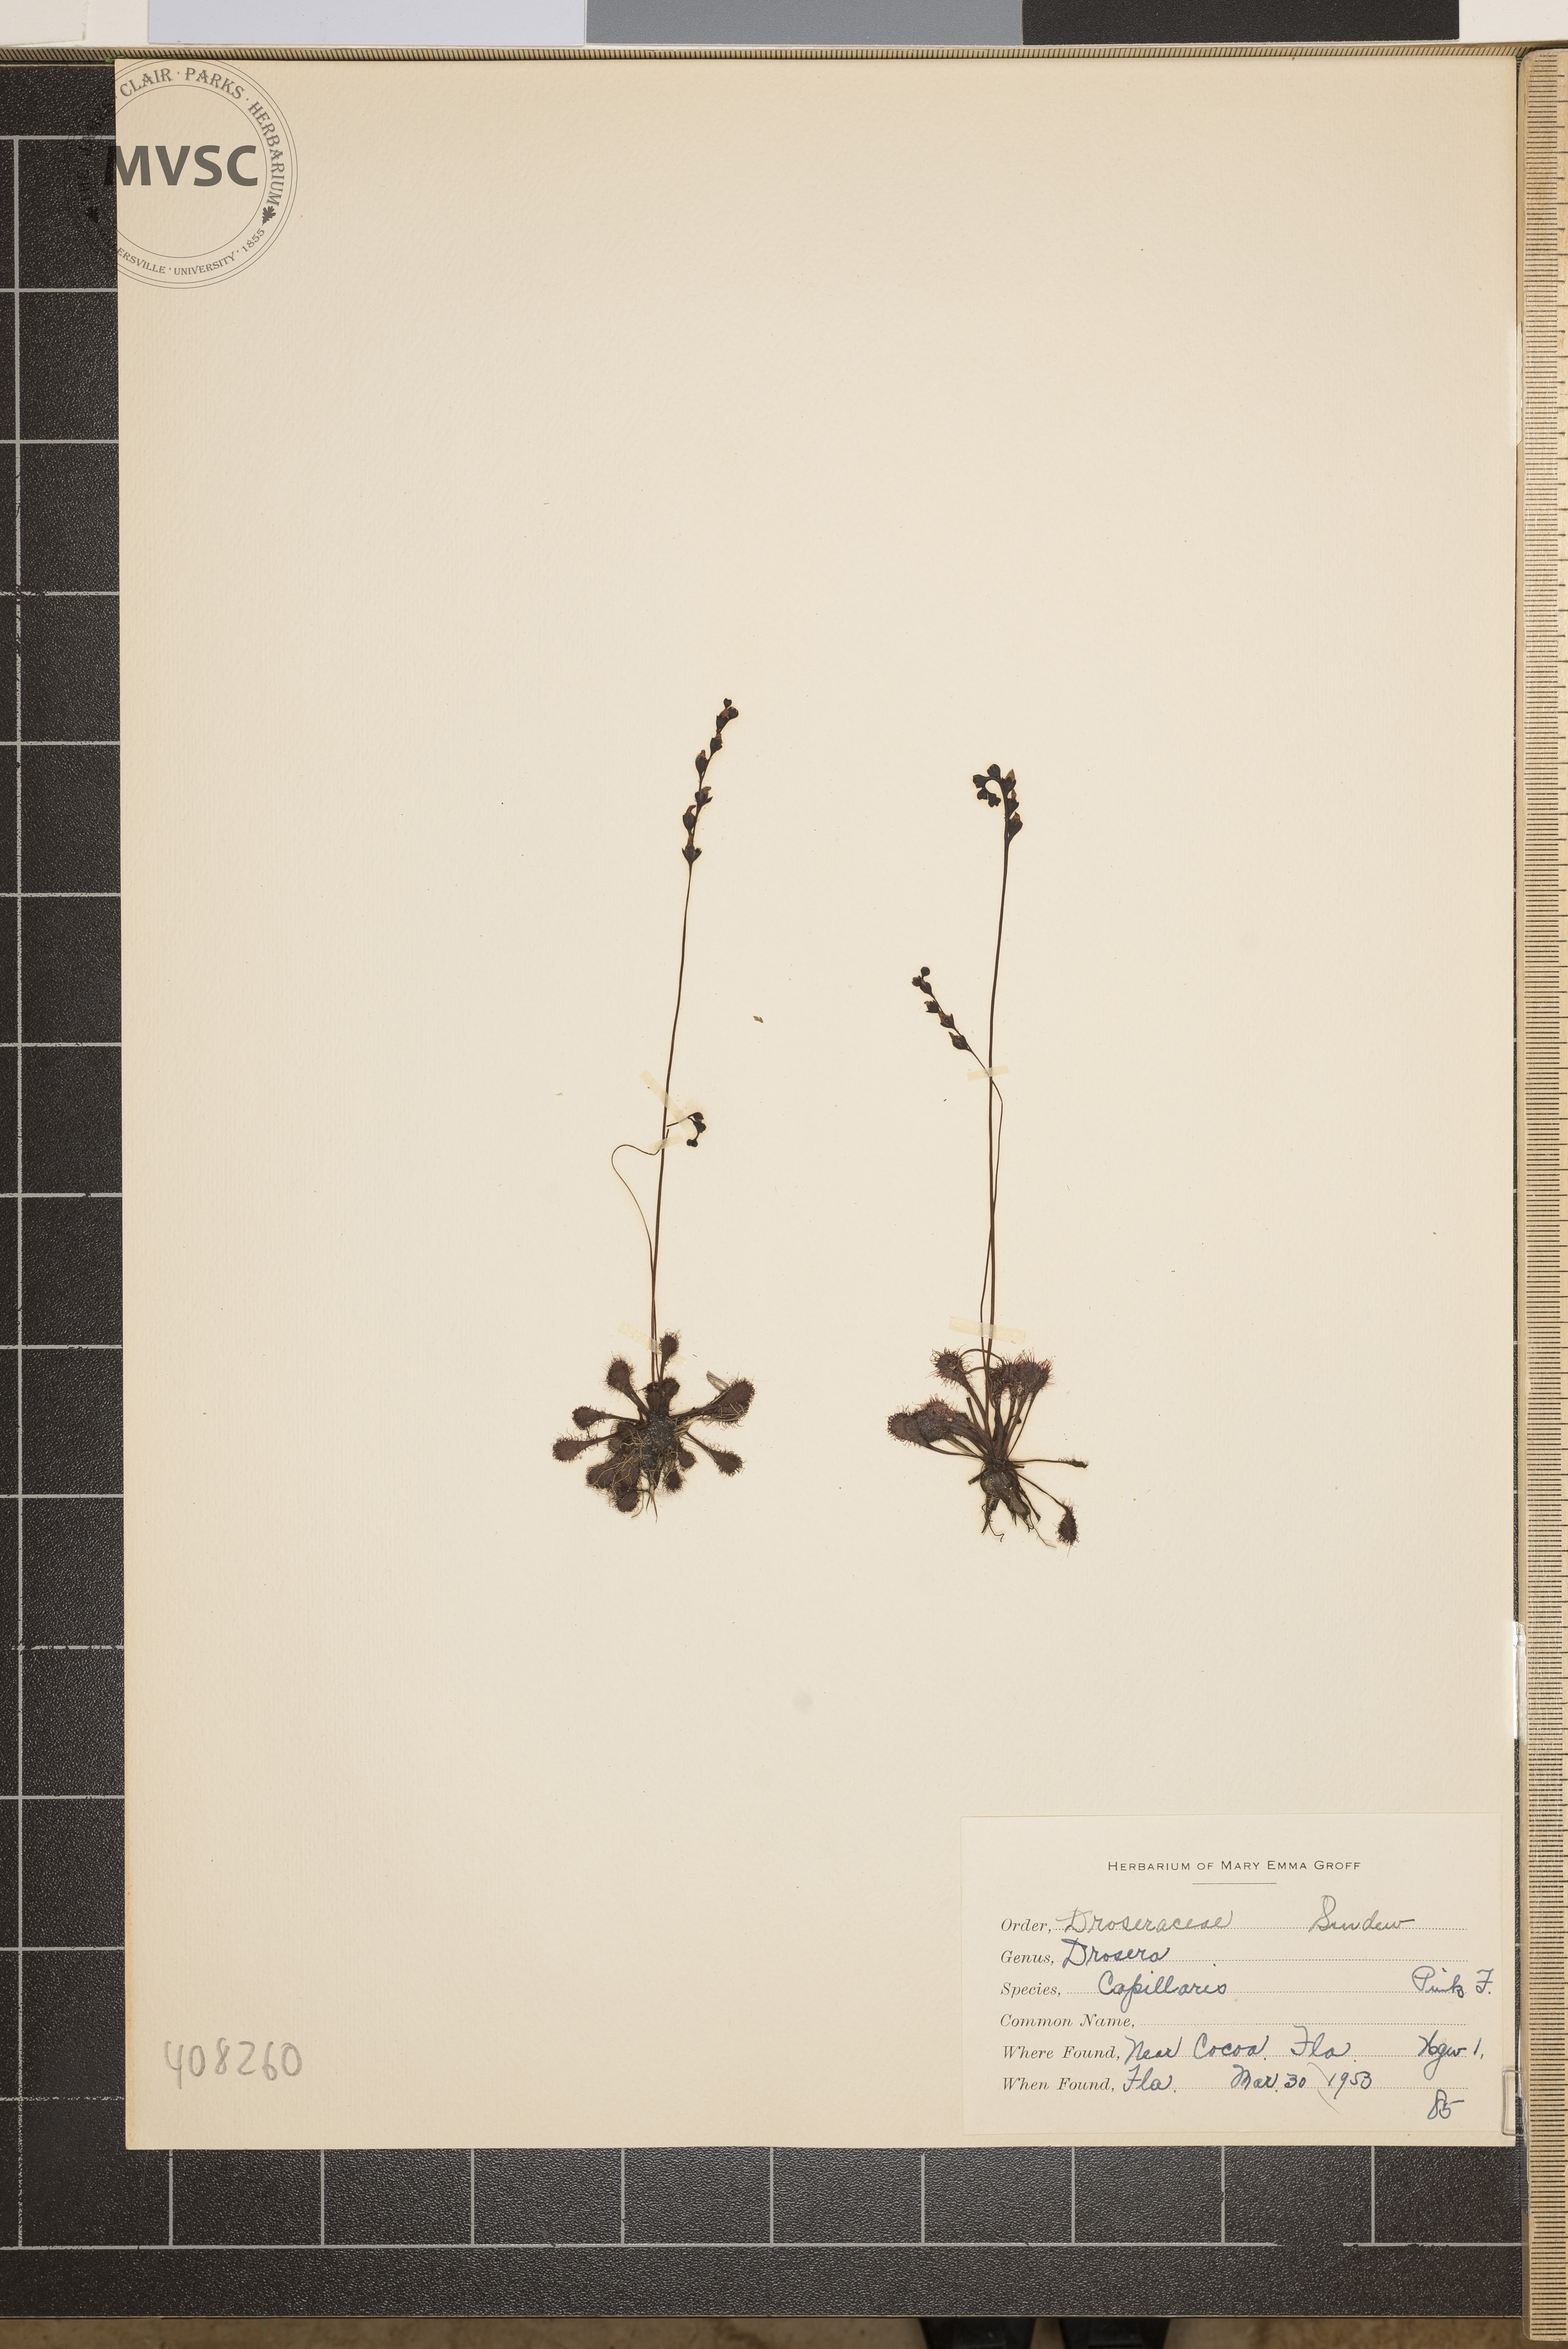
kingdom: Plantae
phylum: Tracheophyta
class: Pinopsida
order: Pinales
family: Pinaceae
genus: Pinus
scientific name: Pinus rigida
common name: Pitch pine
